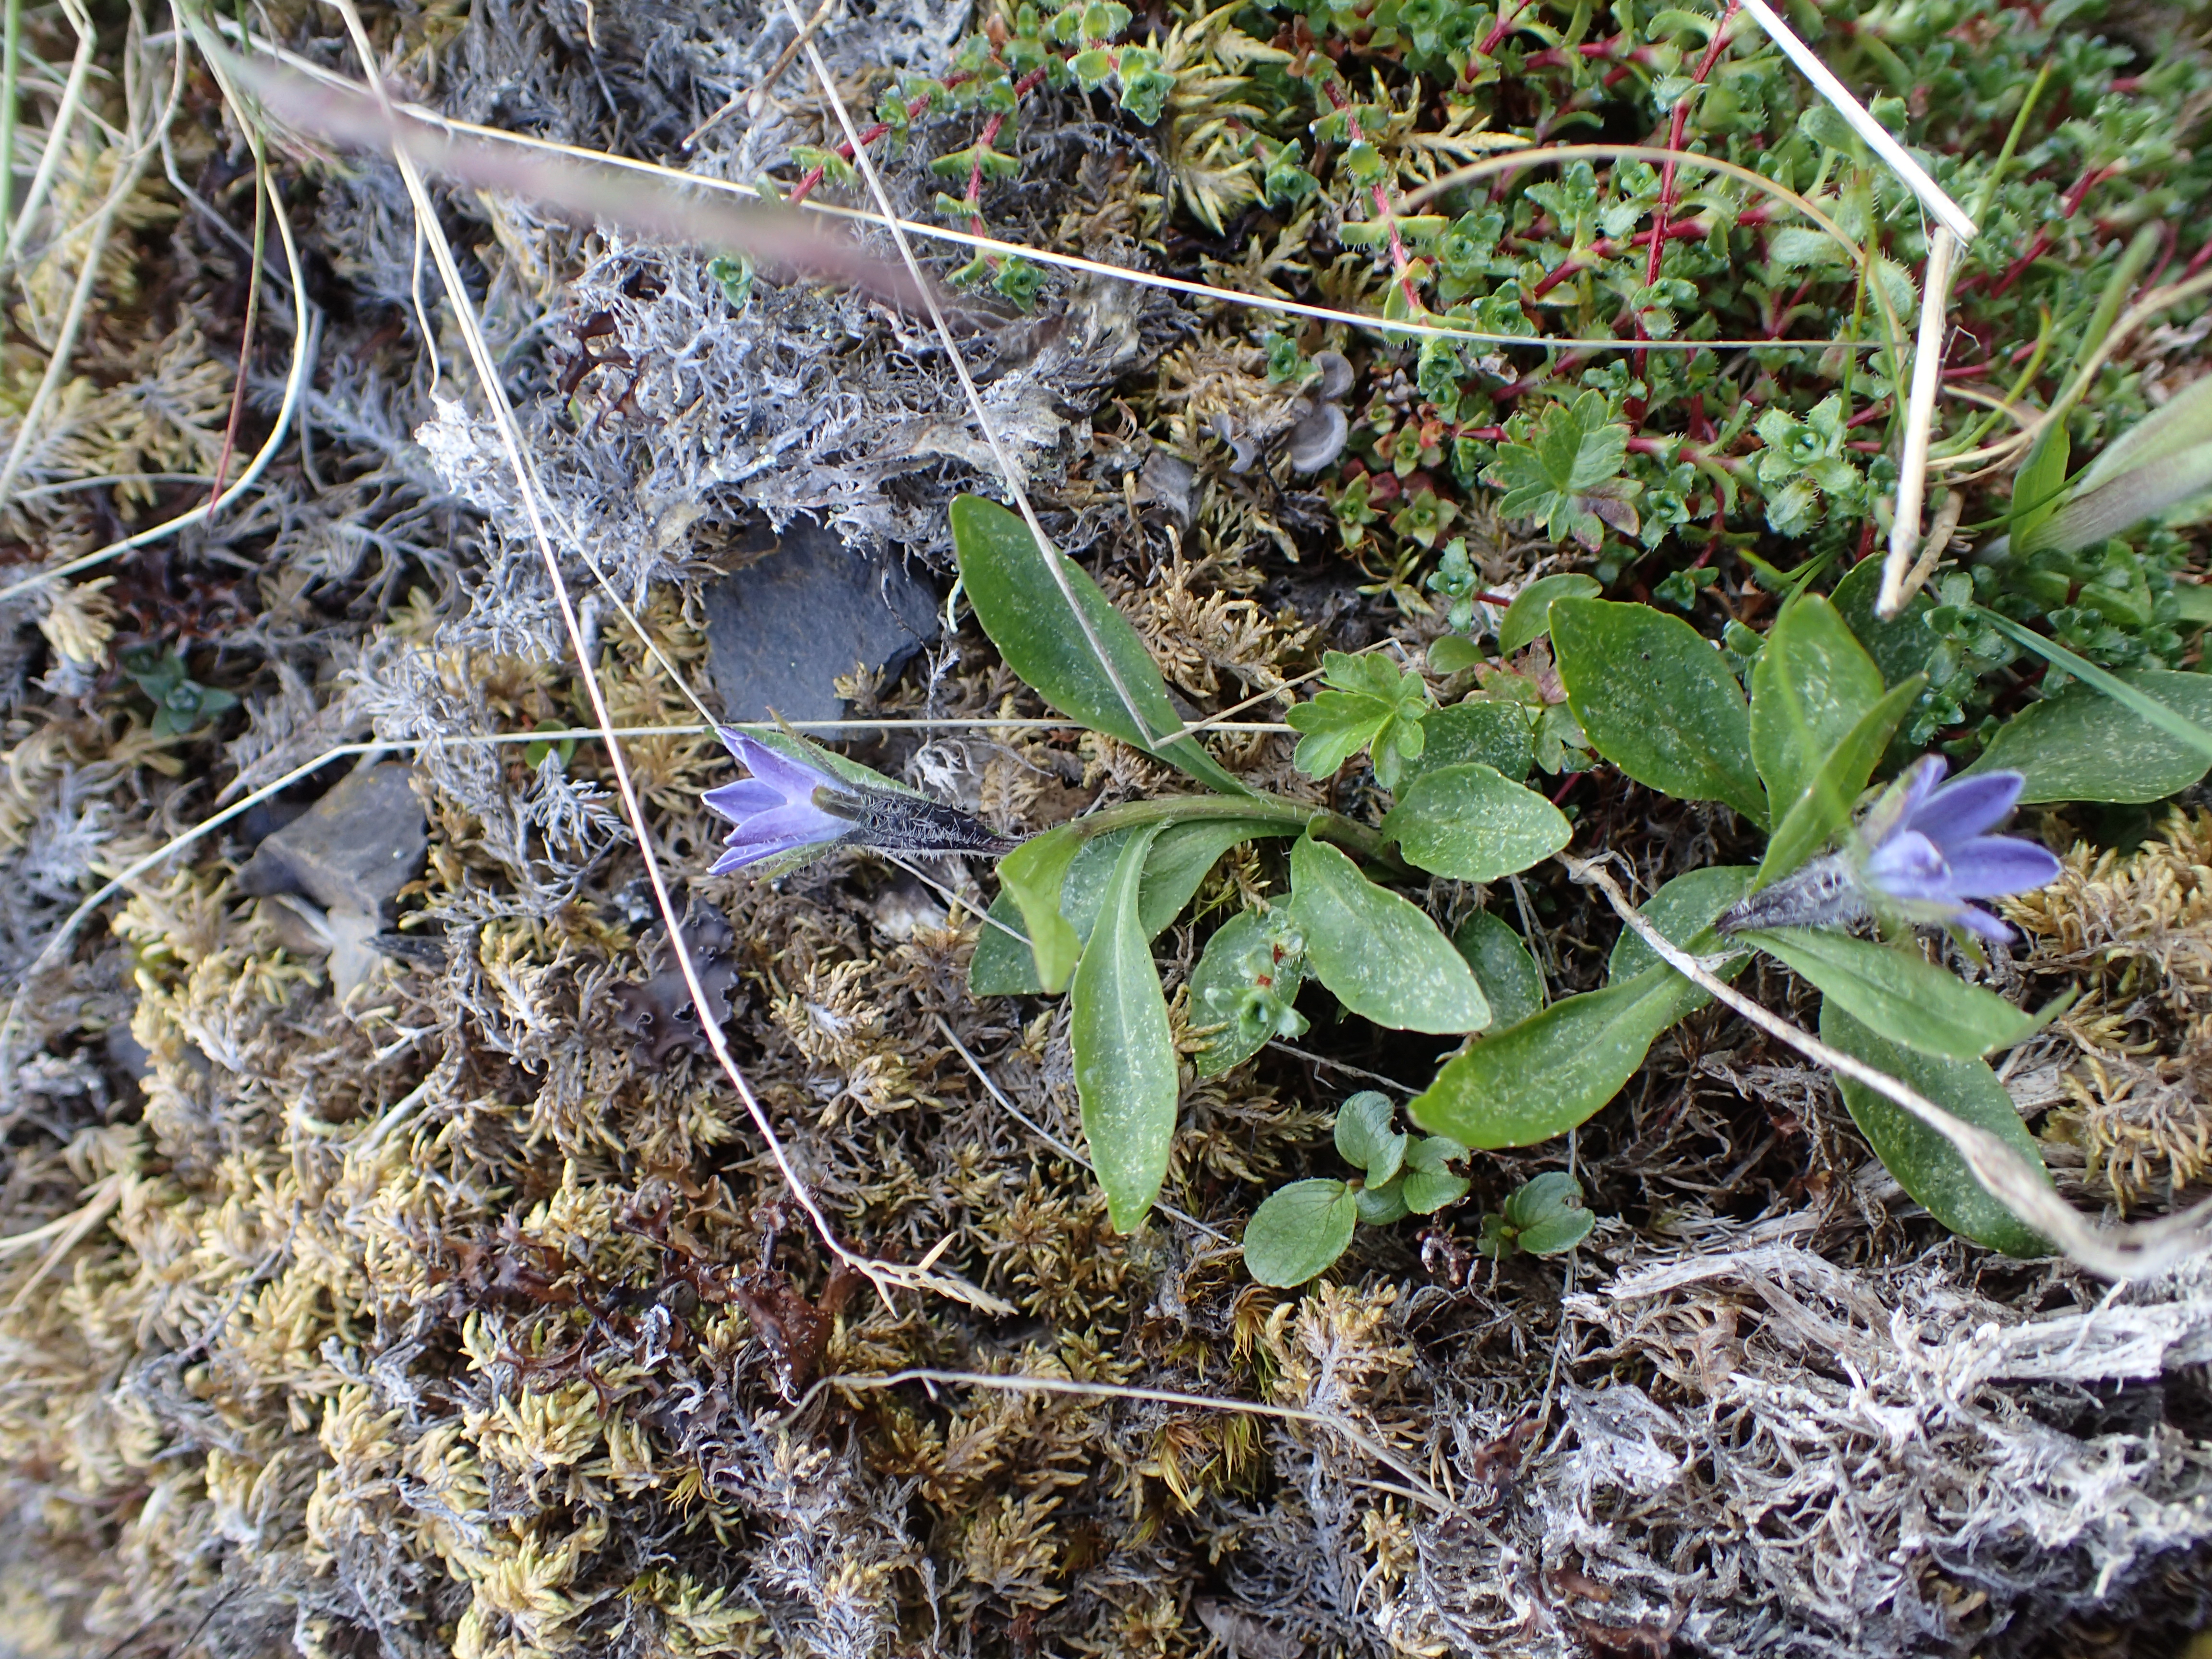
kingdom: Plantae
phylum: Tracheophyta
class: Magnoliopsida
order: Asterales
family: Campanulaceae
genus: Melanocalyx
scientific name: Melanocalyx uniflora
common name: Alpine harebell
